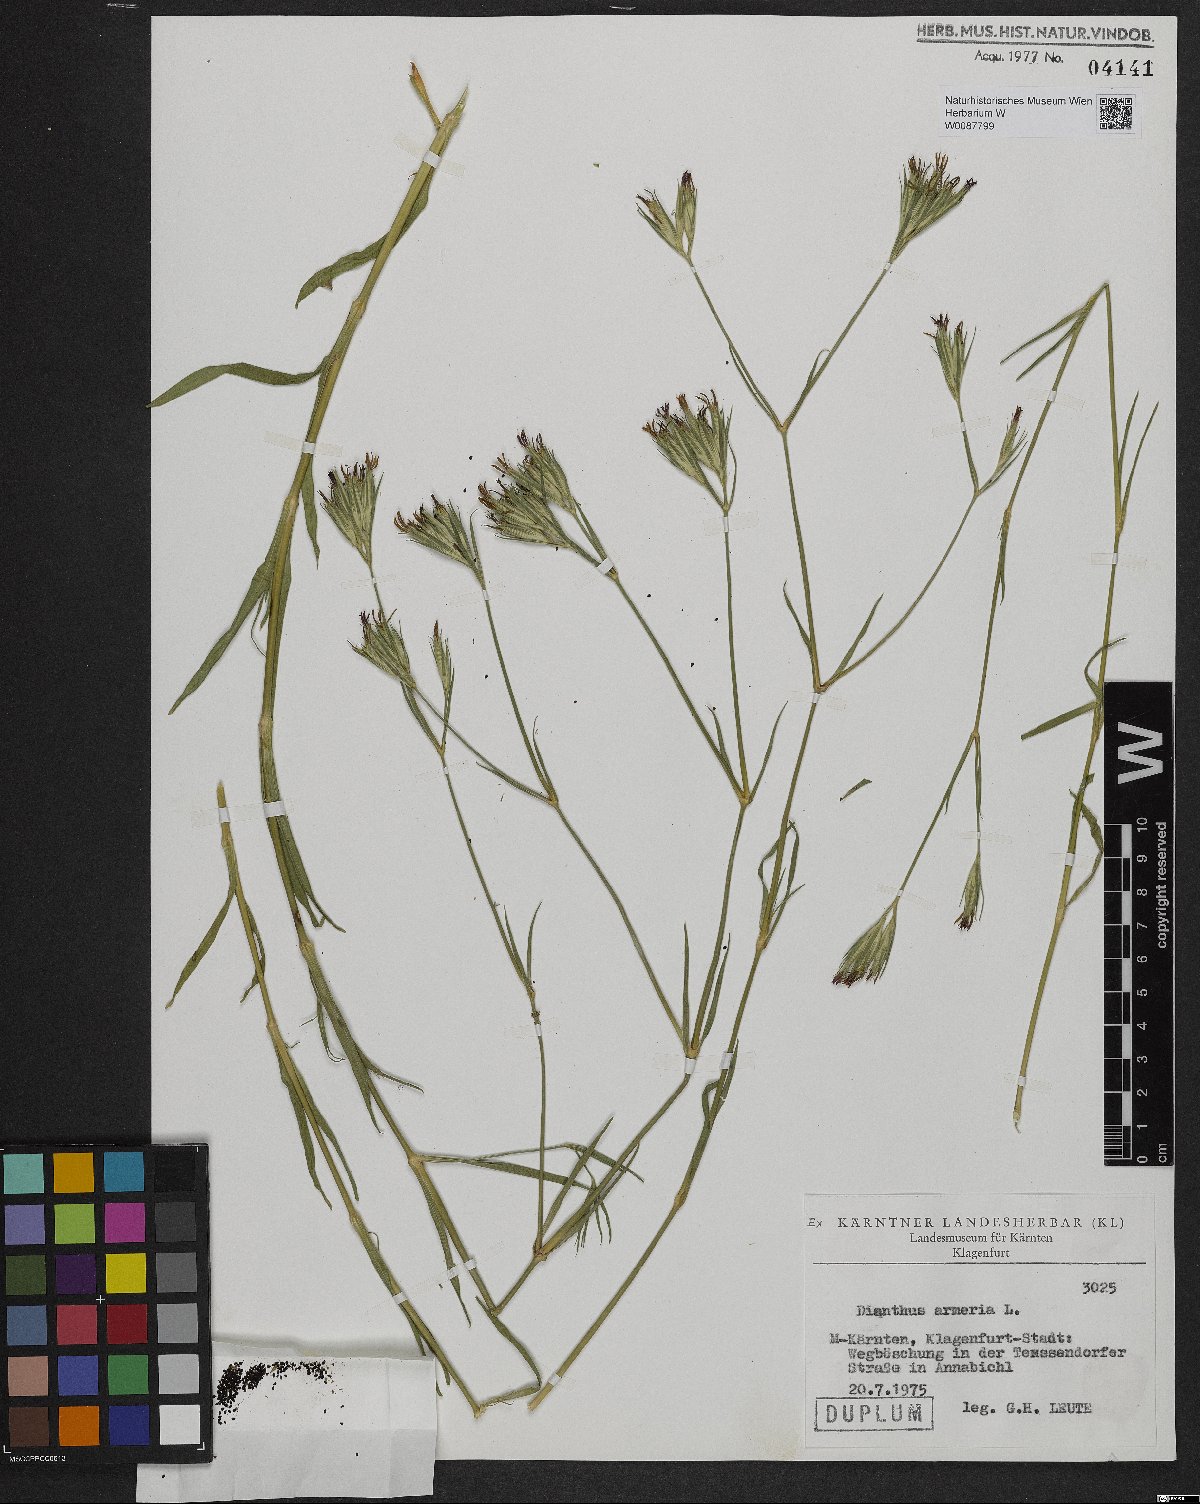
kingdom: Plantae
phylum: Tracheophyta
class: Magnoliopsida
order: Caryophyllales
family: Caryophyllaceae
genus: Dianthus
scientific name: Dianthus armeria
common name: Deptford pink
